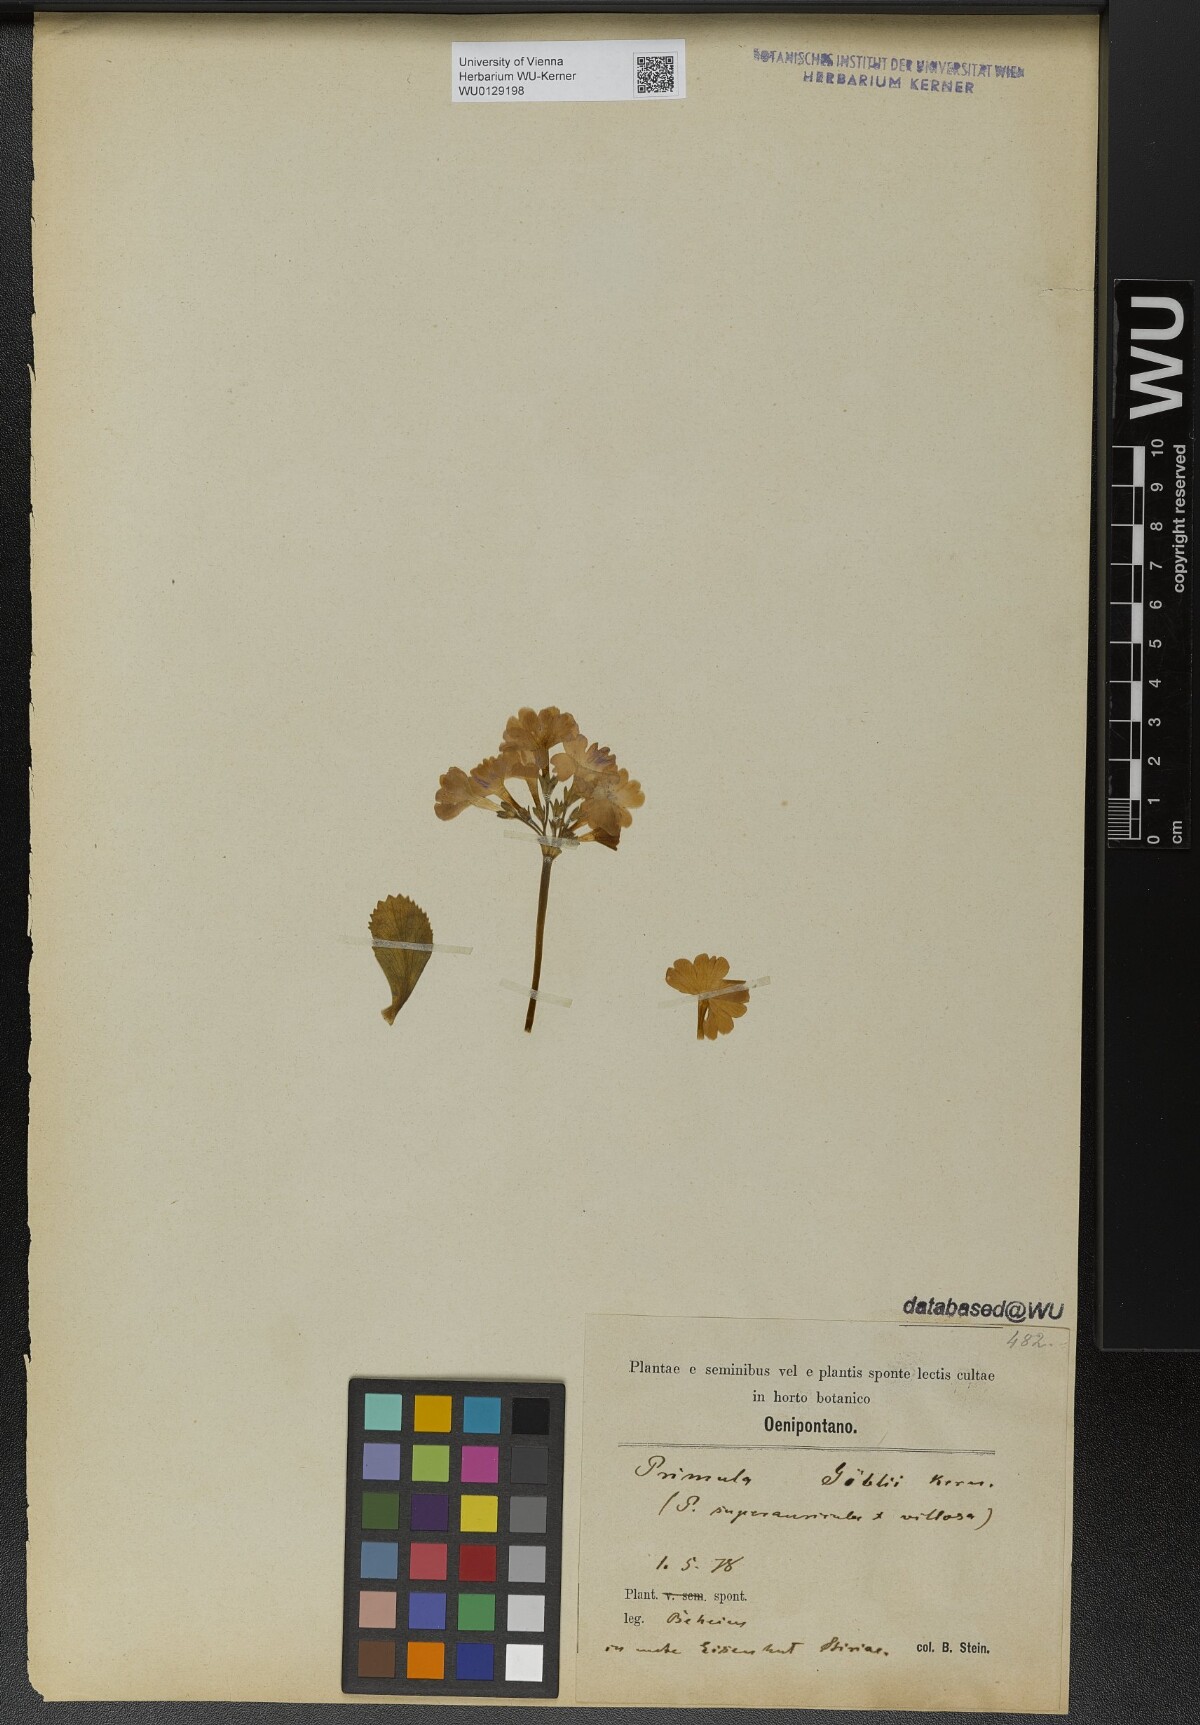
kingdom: Plantae
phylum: Tracheophyta
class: Magnoliopsida
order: Ericales
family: Primulaceae
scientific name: Primulaceae
